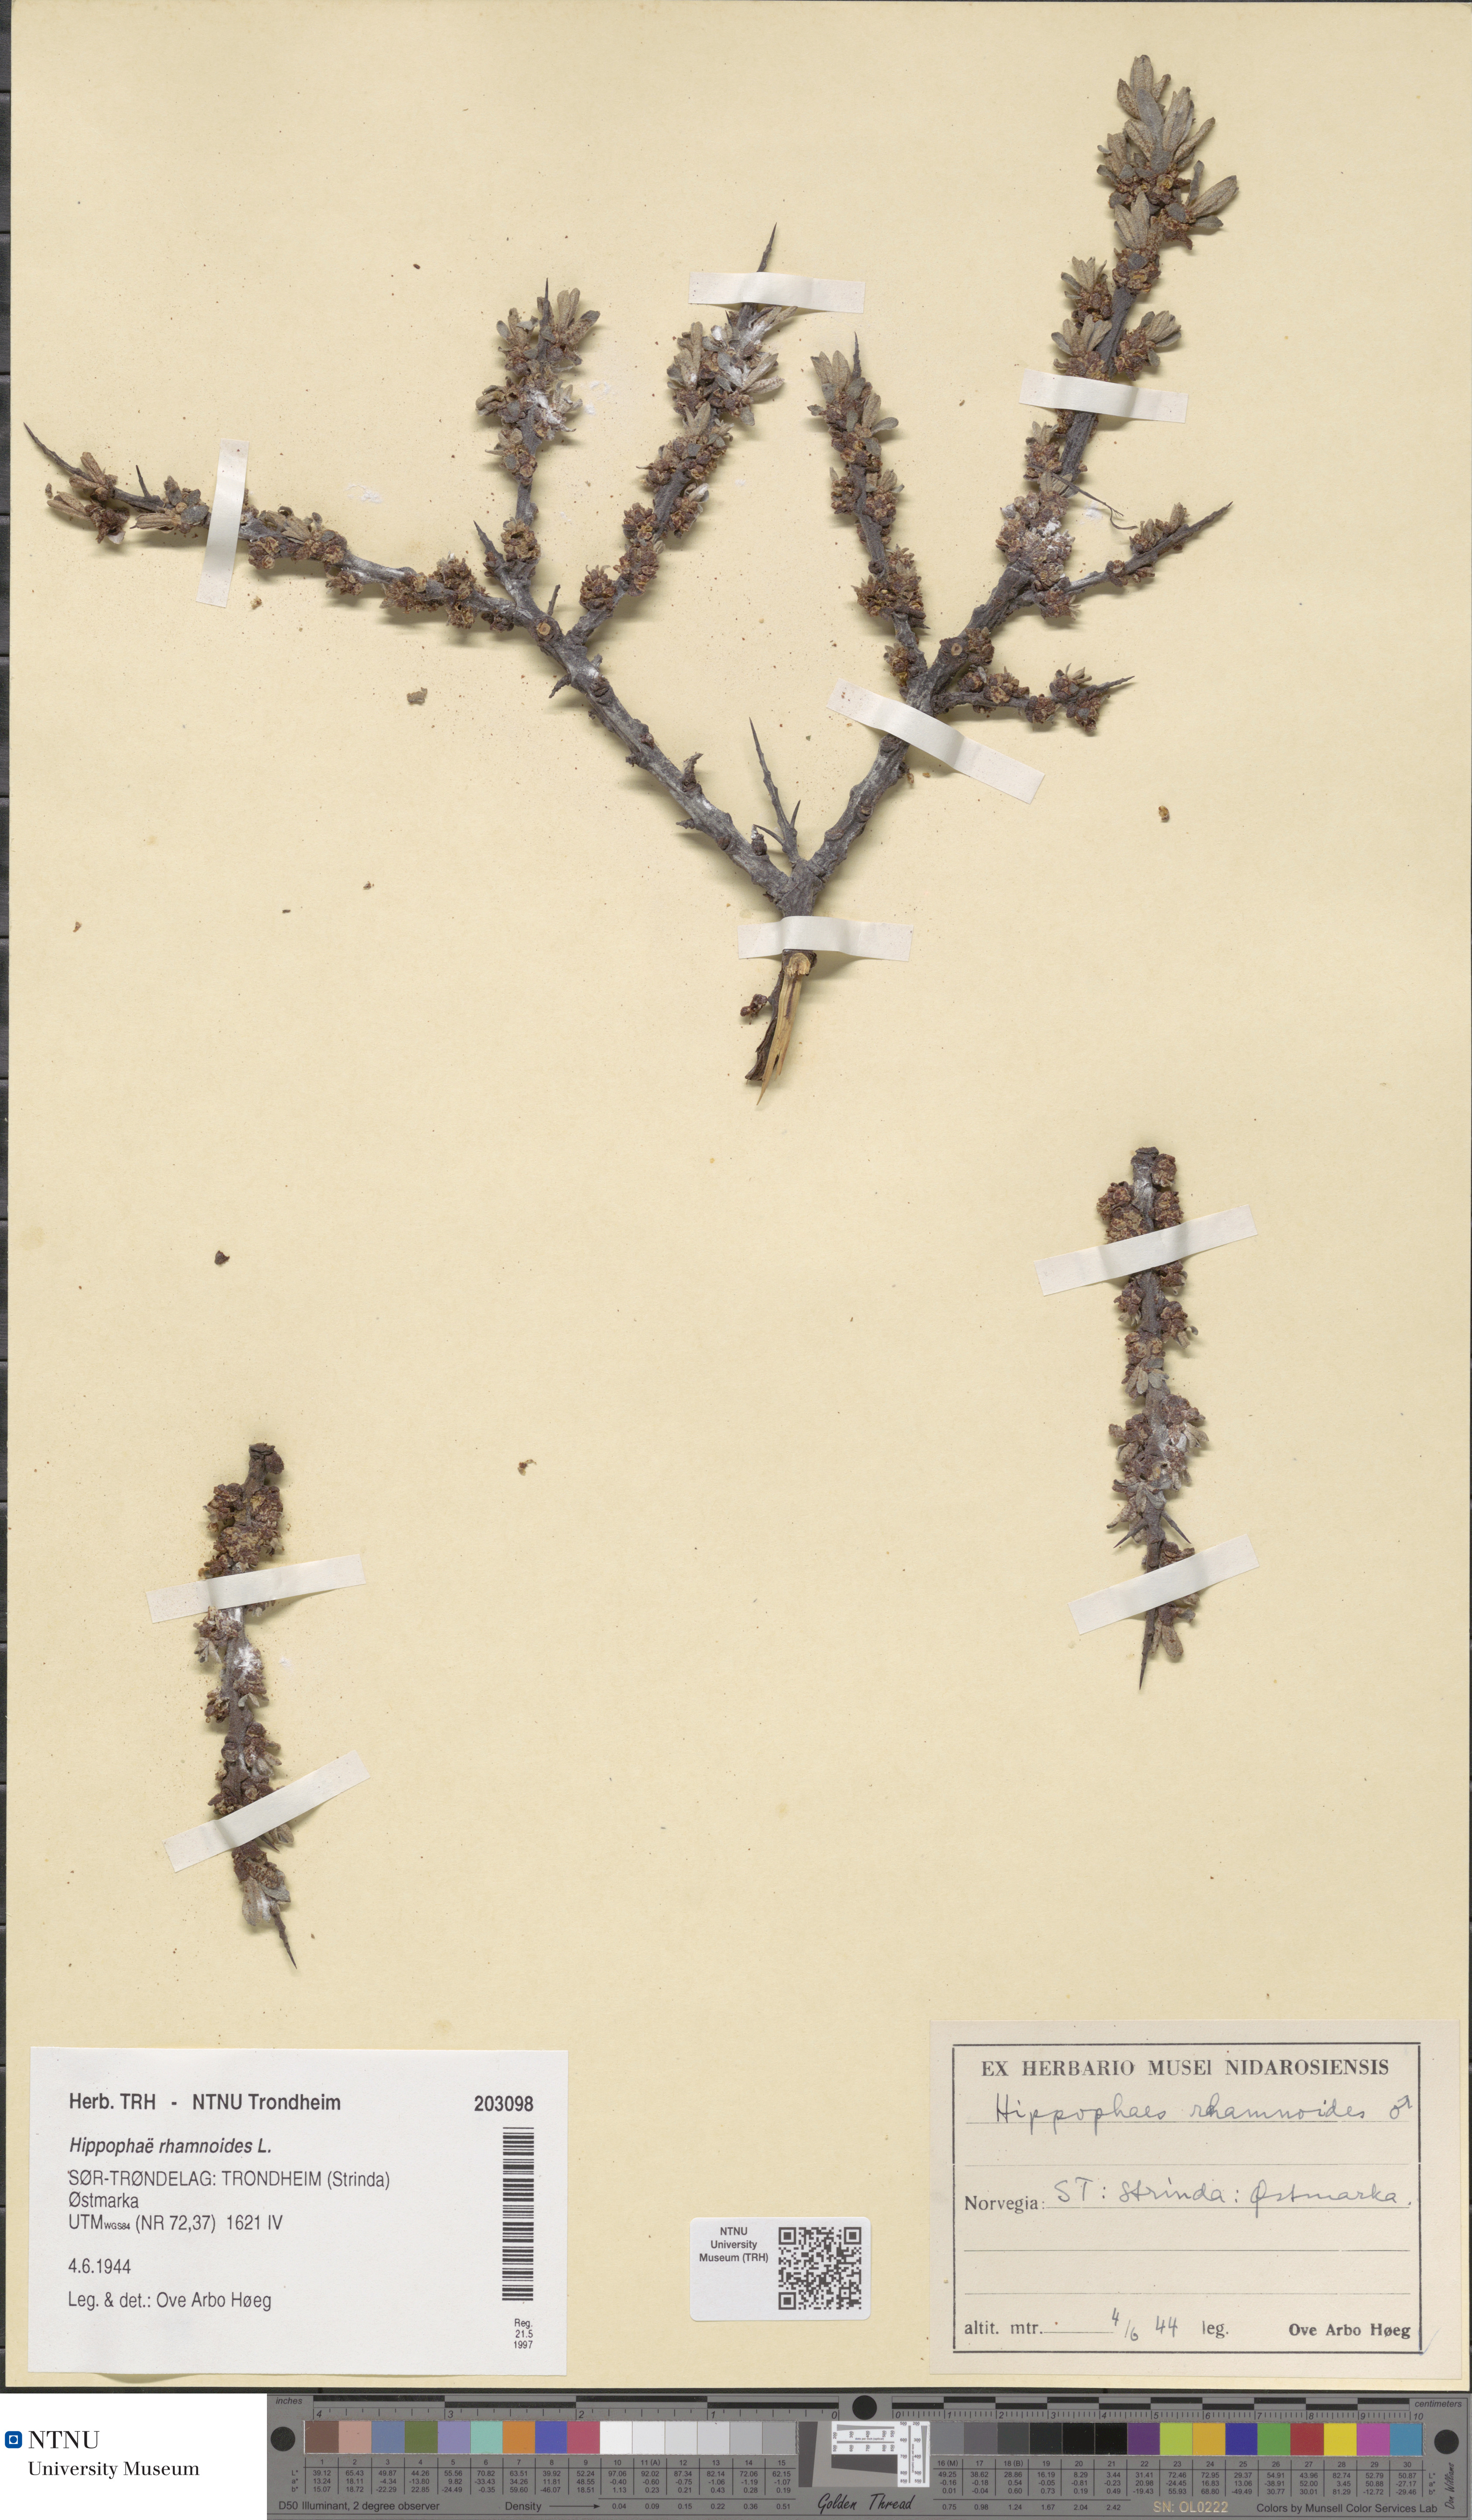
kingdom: Plantae
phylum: Tracheophyta
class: Magnoliopsida
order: Rosales
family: Elaeagnaceae
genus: Hippophae
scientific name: Hippophae rhamnoides
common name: Sea-buckthorn
